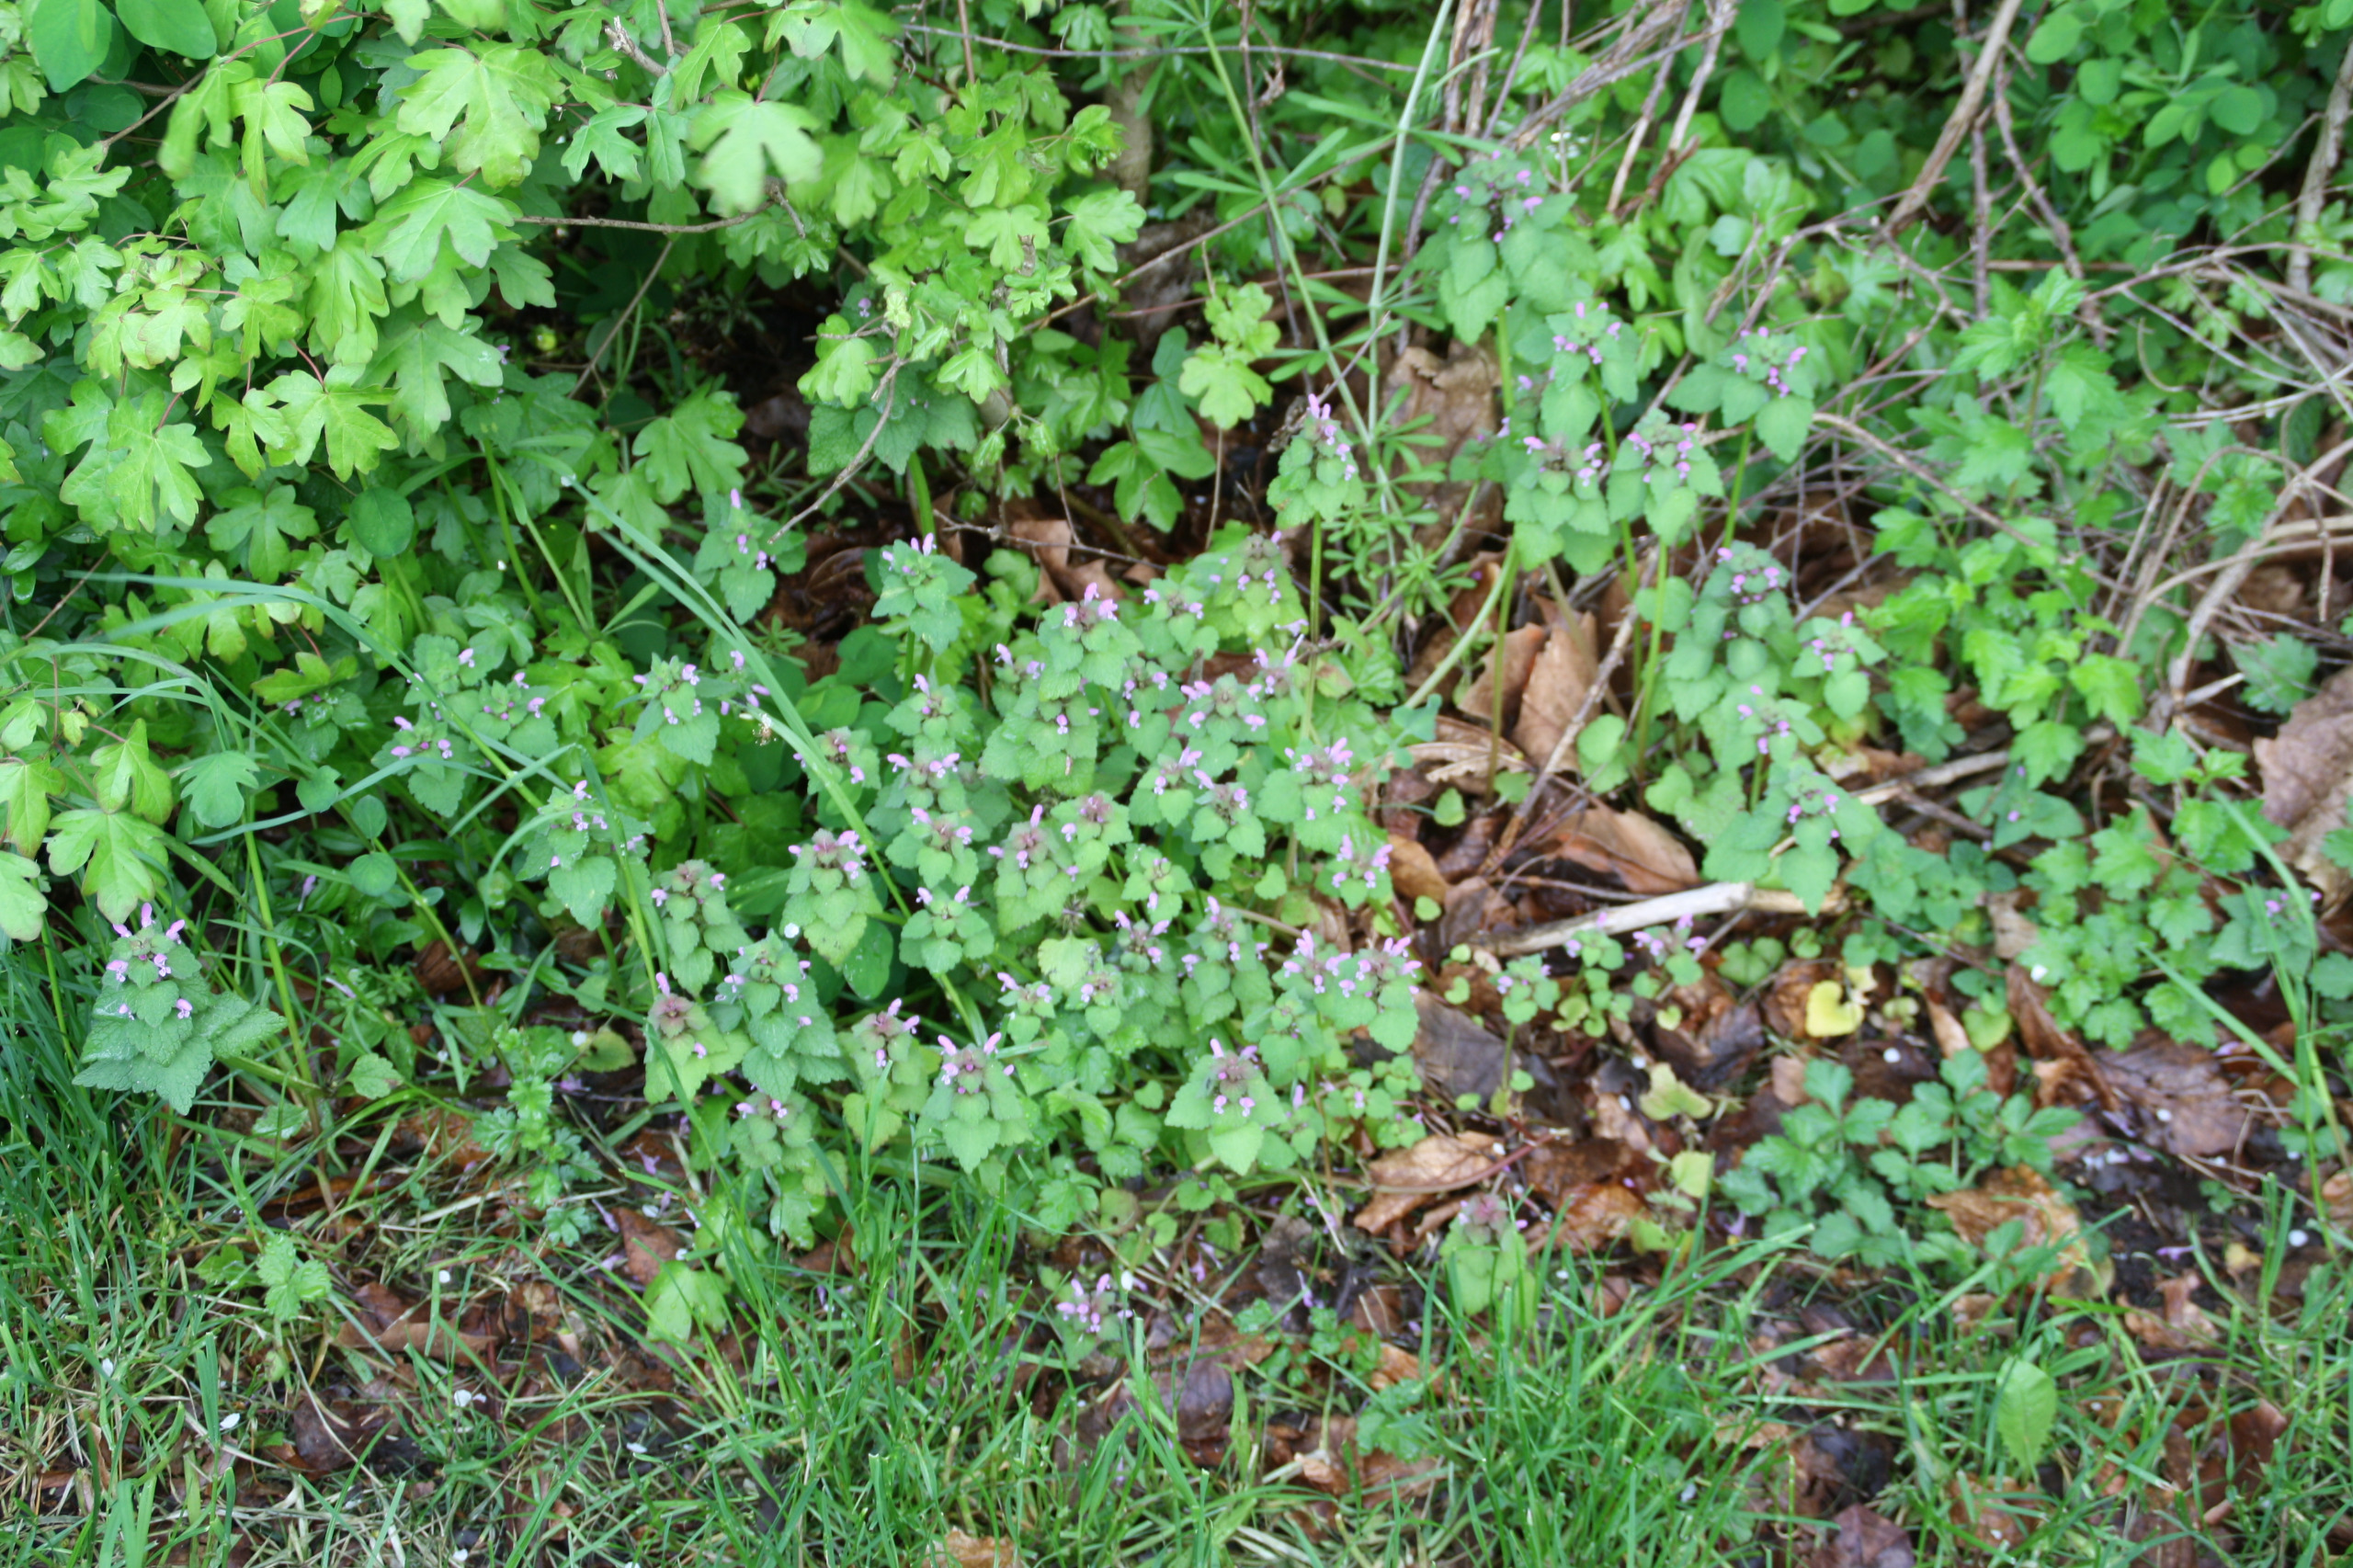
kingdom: Plantae
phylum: Tracheophyta
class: Magnoliopsida
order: Lamiales
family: Lamiaceae
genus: Lamium
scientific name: Lamium purpureum
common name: Rød tvetand
